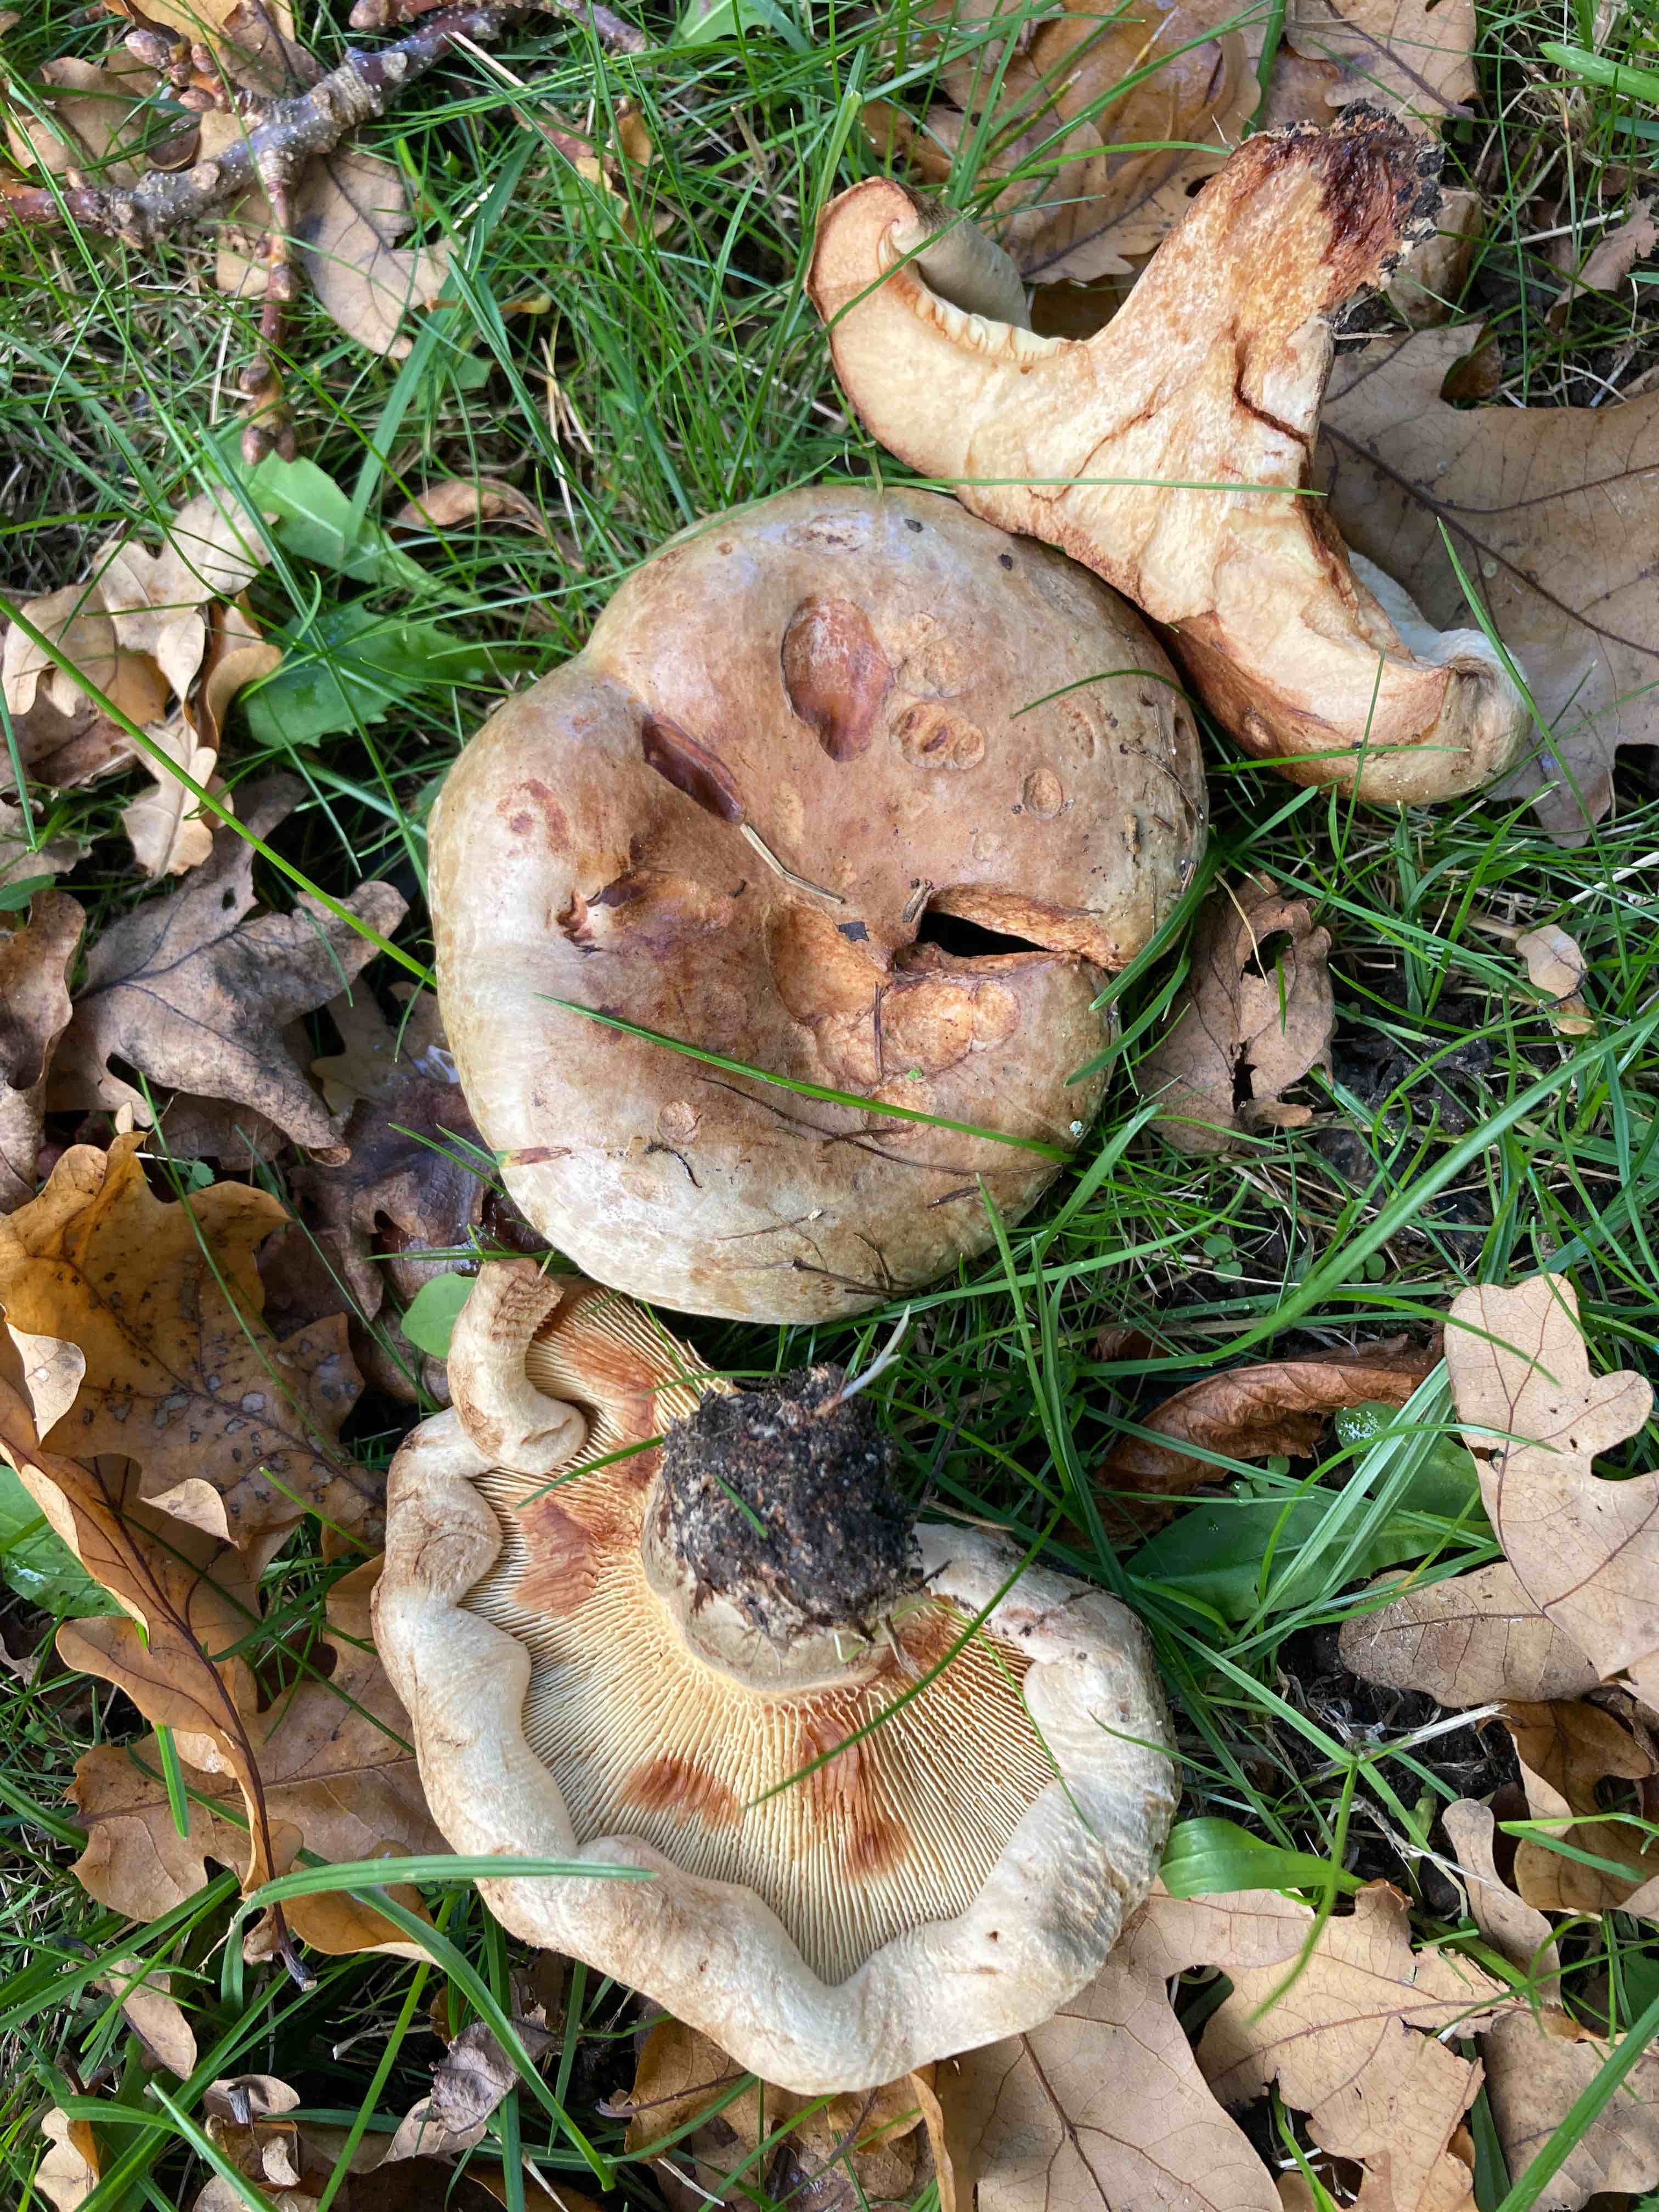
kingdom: Fungi
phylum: Basidiomycota
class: Agaricomycetes
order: Boletales
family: Paxillaceae
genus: Paxillus
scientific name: Paxillus
